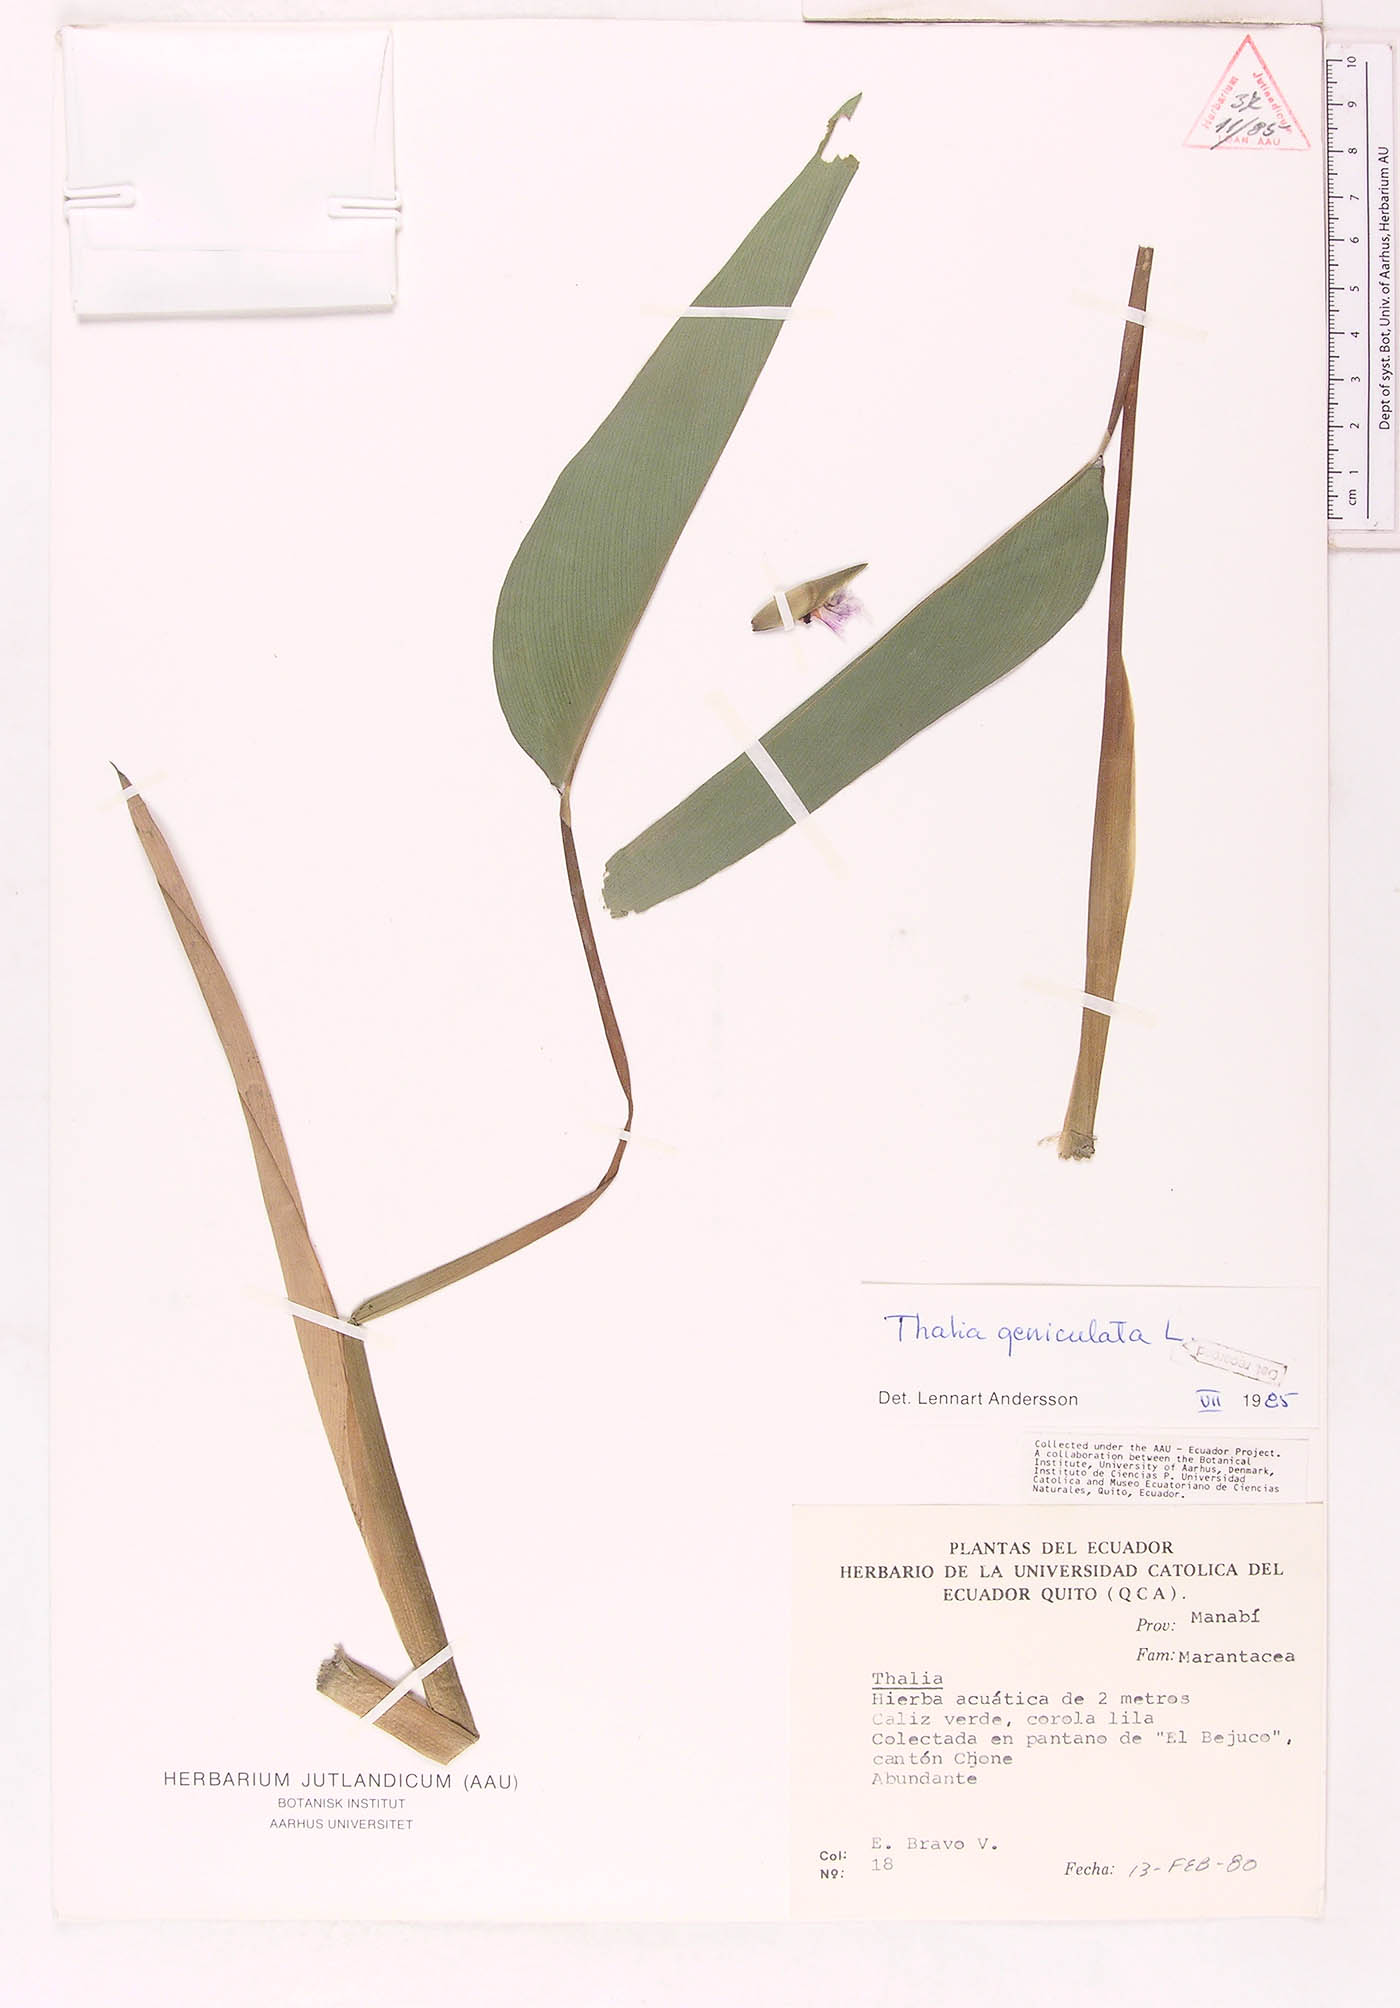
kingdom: Plantae
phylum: Tracheophyta
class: Liliopsida
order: Zingiberales
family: Marantaceae
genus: Thalia
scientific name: Thalia geniculata
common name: Arrowroot
